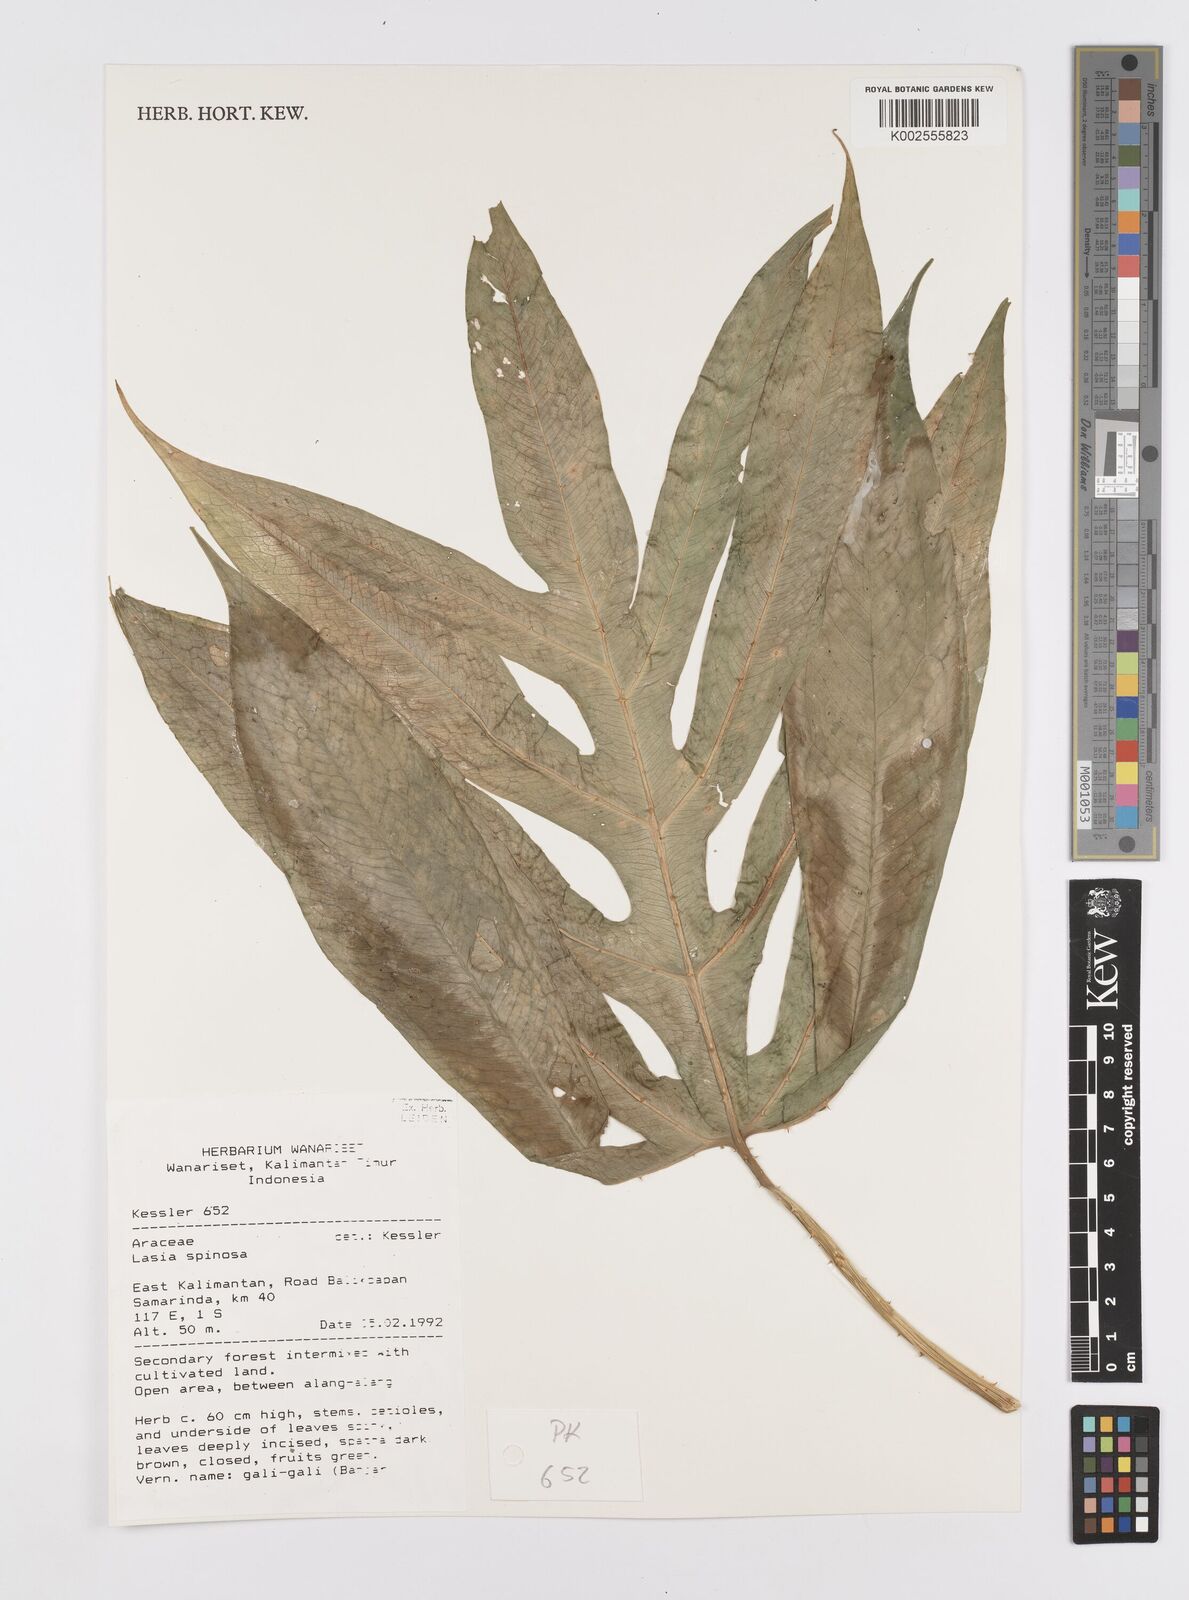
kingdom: Plantae
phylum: Tracheophyta
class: Liliopsida
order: Alismatales
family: Araceae
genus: Lasia
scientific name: Lasia spinosa
